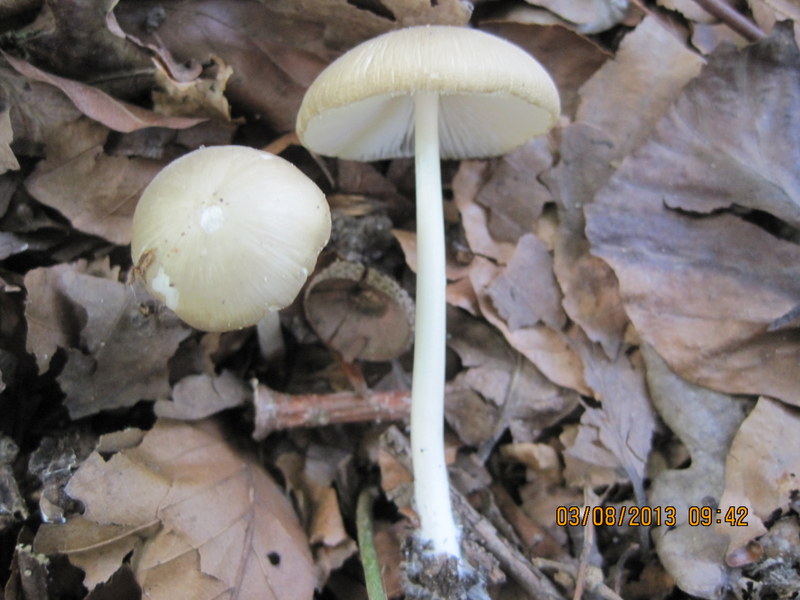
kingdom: Fungi
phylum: Basidiomycota
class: Agaricomycetes
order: Agaricales
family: Porotheleaceae
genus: Hydropodia
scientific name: Hydropodia subalpina
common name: vår-fnugfod
